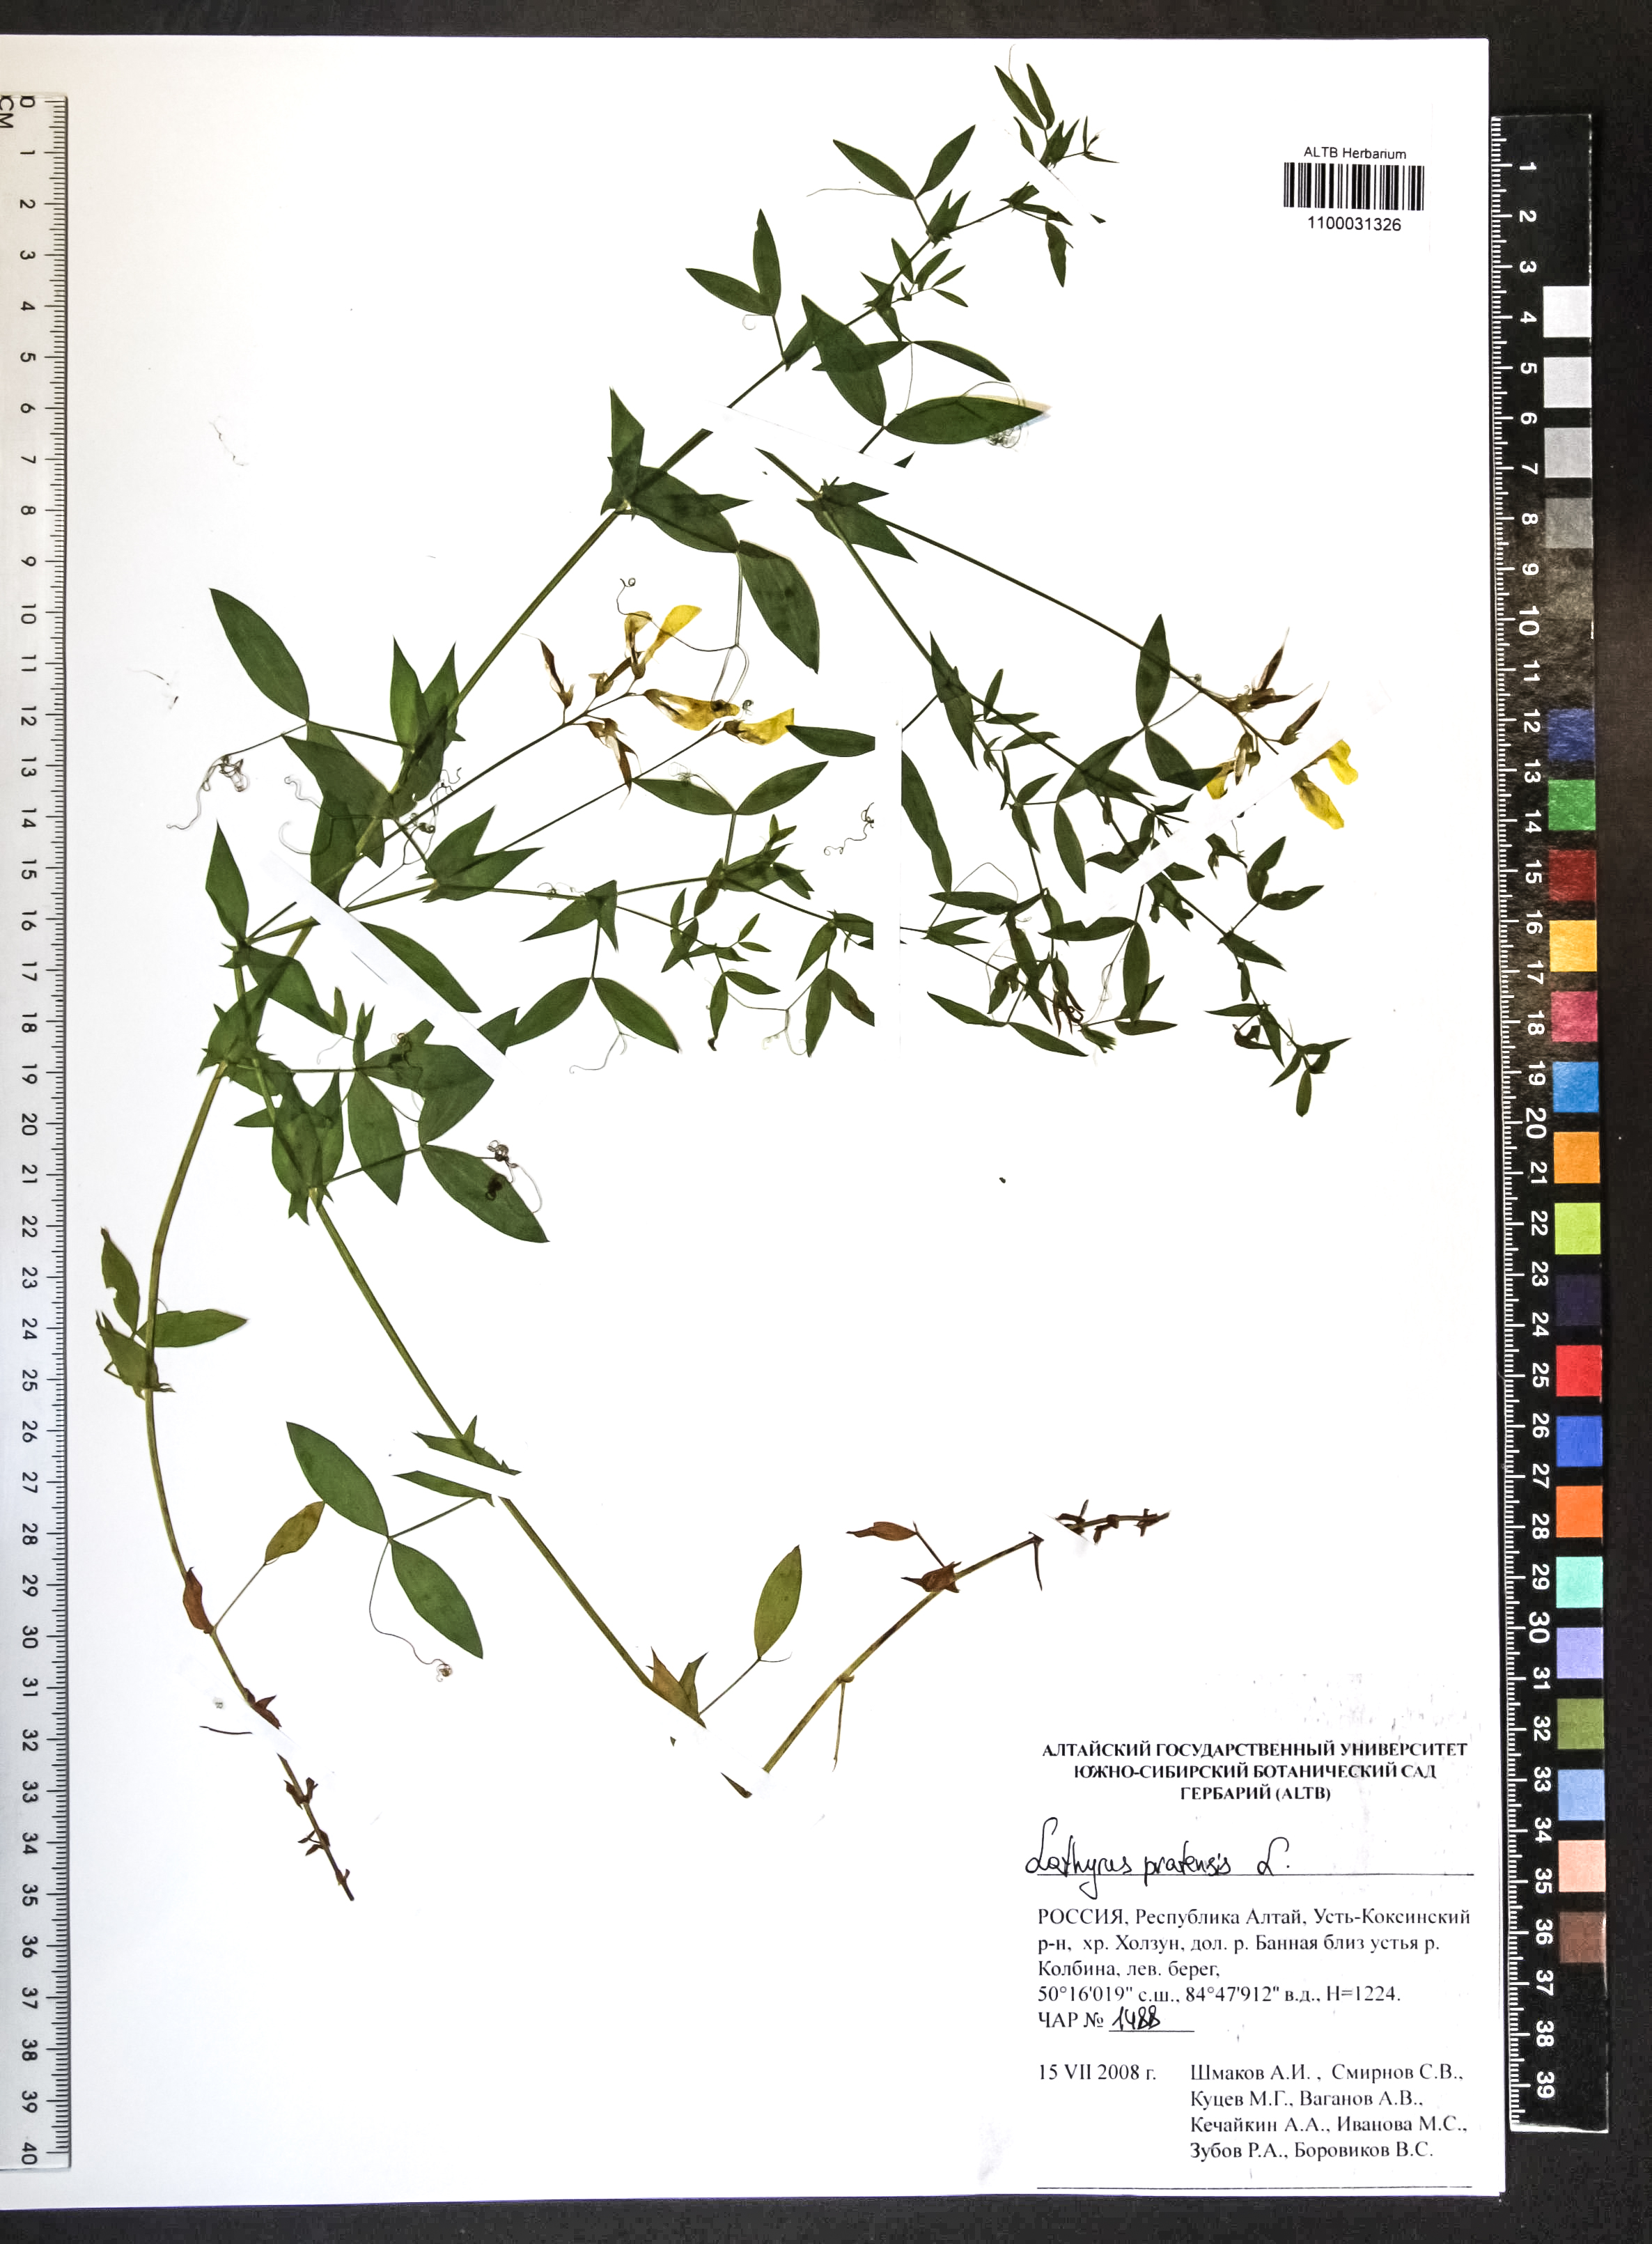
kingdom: Plantae
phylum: Tracheophyta
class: Magnoliopsida
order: Fabales
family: Fabaceae
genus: Lathyrus
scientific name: Lathyrus pratensis
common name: Meadow vetchling
